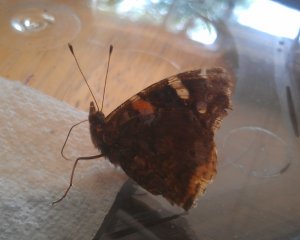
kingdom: Animalia
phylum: Arthropoda
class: Insecta
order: Lepidoptera
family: Nymphalidae
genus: Vanessa
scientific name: Vanessa atalanta
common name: Red Admiral
